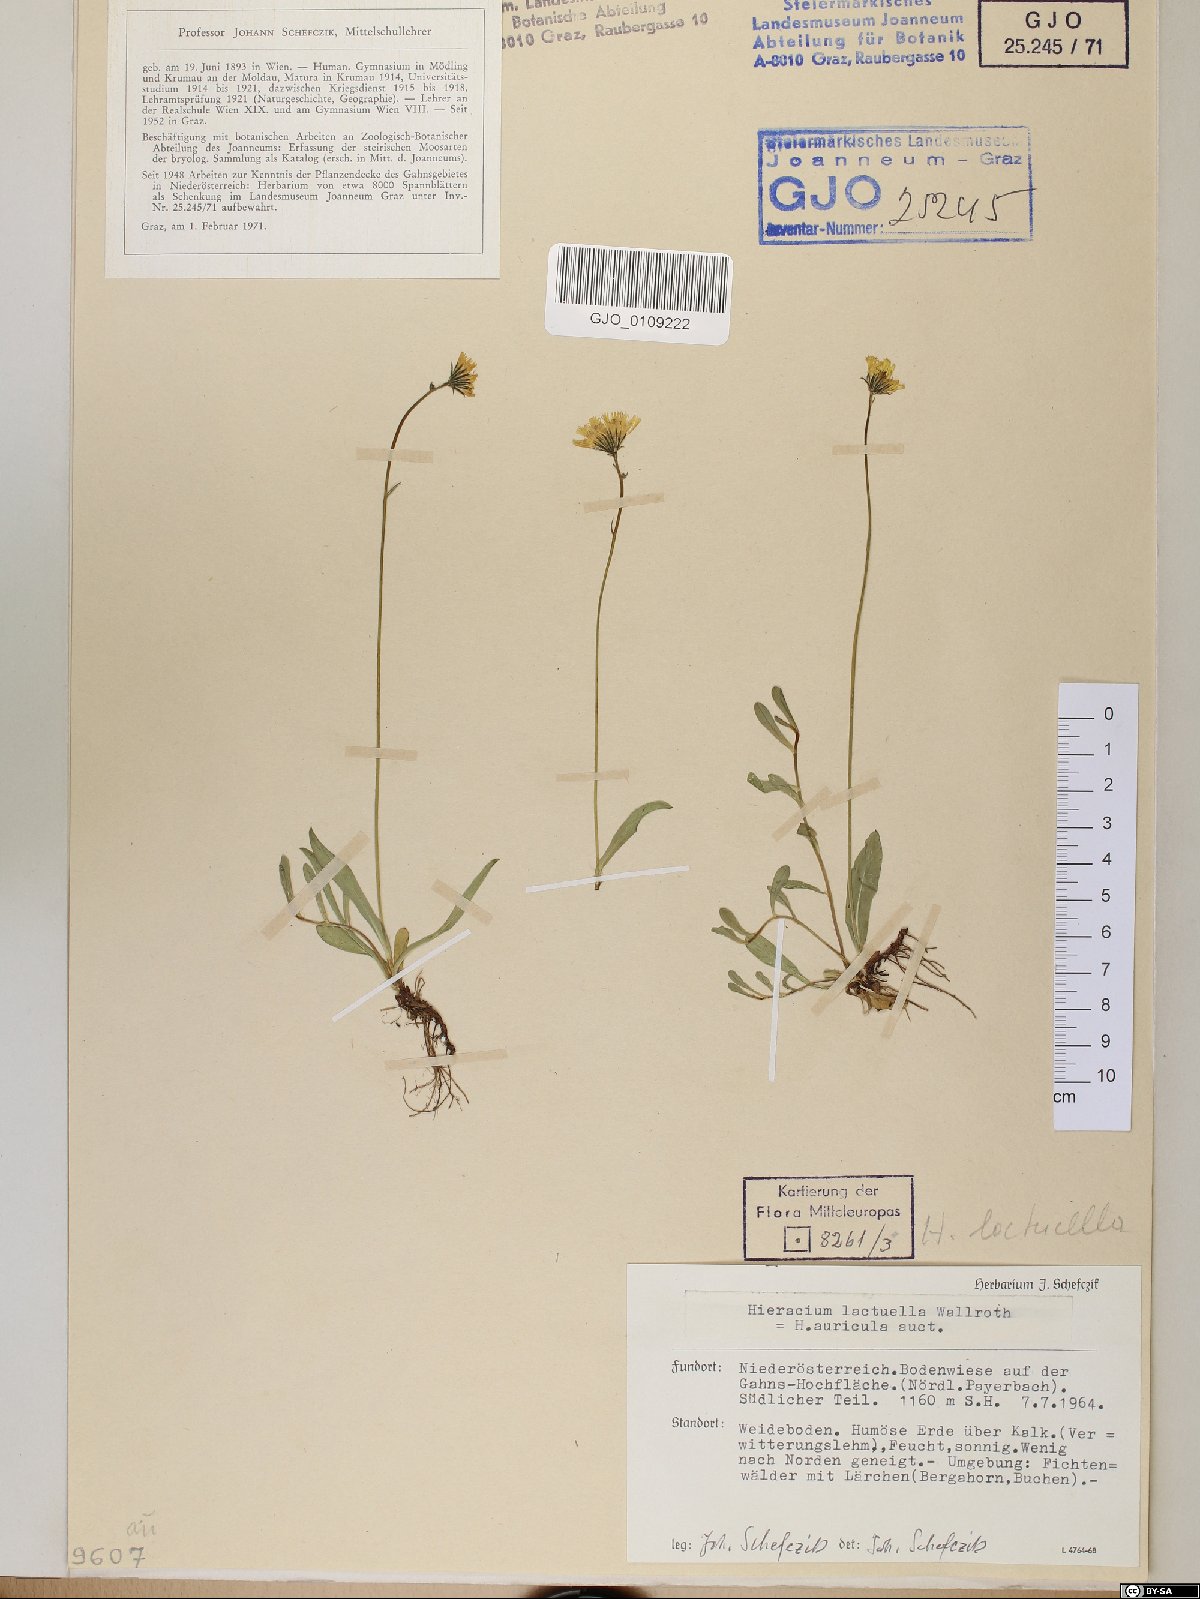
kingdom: Plantae
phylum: Tracheophyta
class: Magnoliopsida
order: Asterales
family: Asteraceae
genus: Pilosella
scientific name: Pilosella lactucella
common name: Glaucous fox-and-cubs
